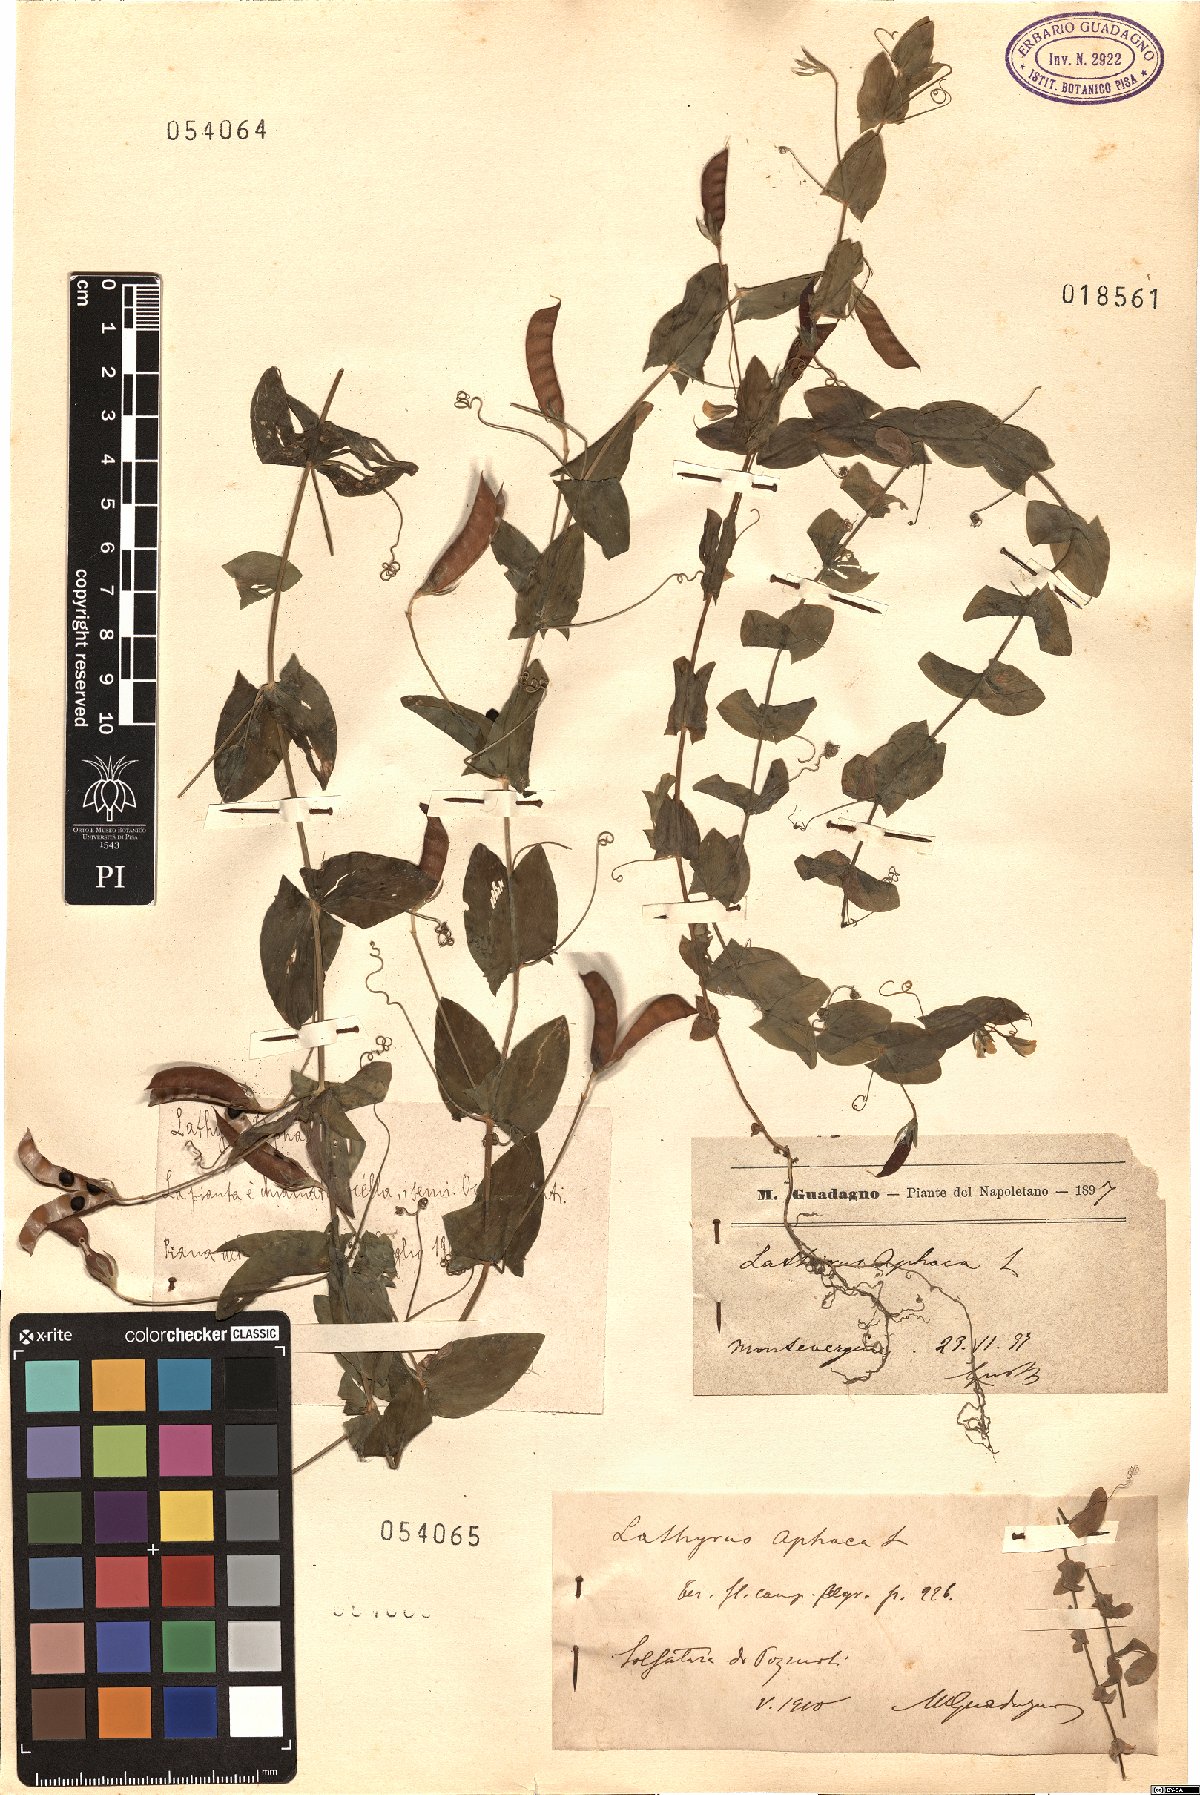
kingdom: Plantae
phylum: Tracheophyta
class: Magnoliopsida
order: Fabales
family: Fabaceae
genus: Lathyrus
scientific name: Lathyrus aphaca
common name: Yellow vetchling
